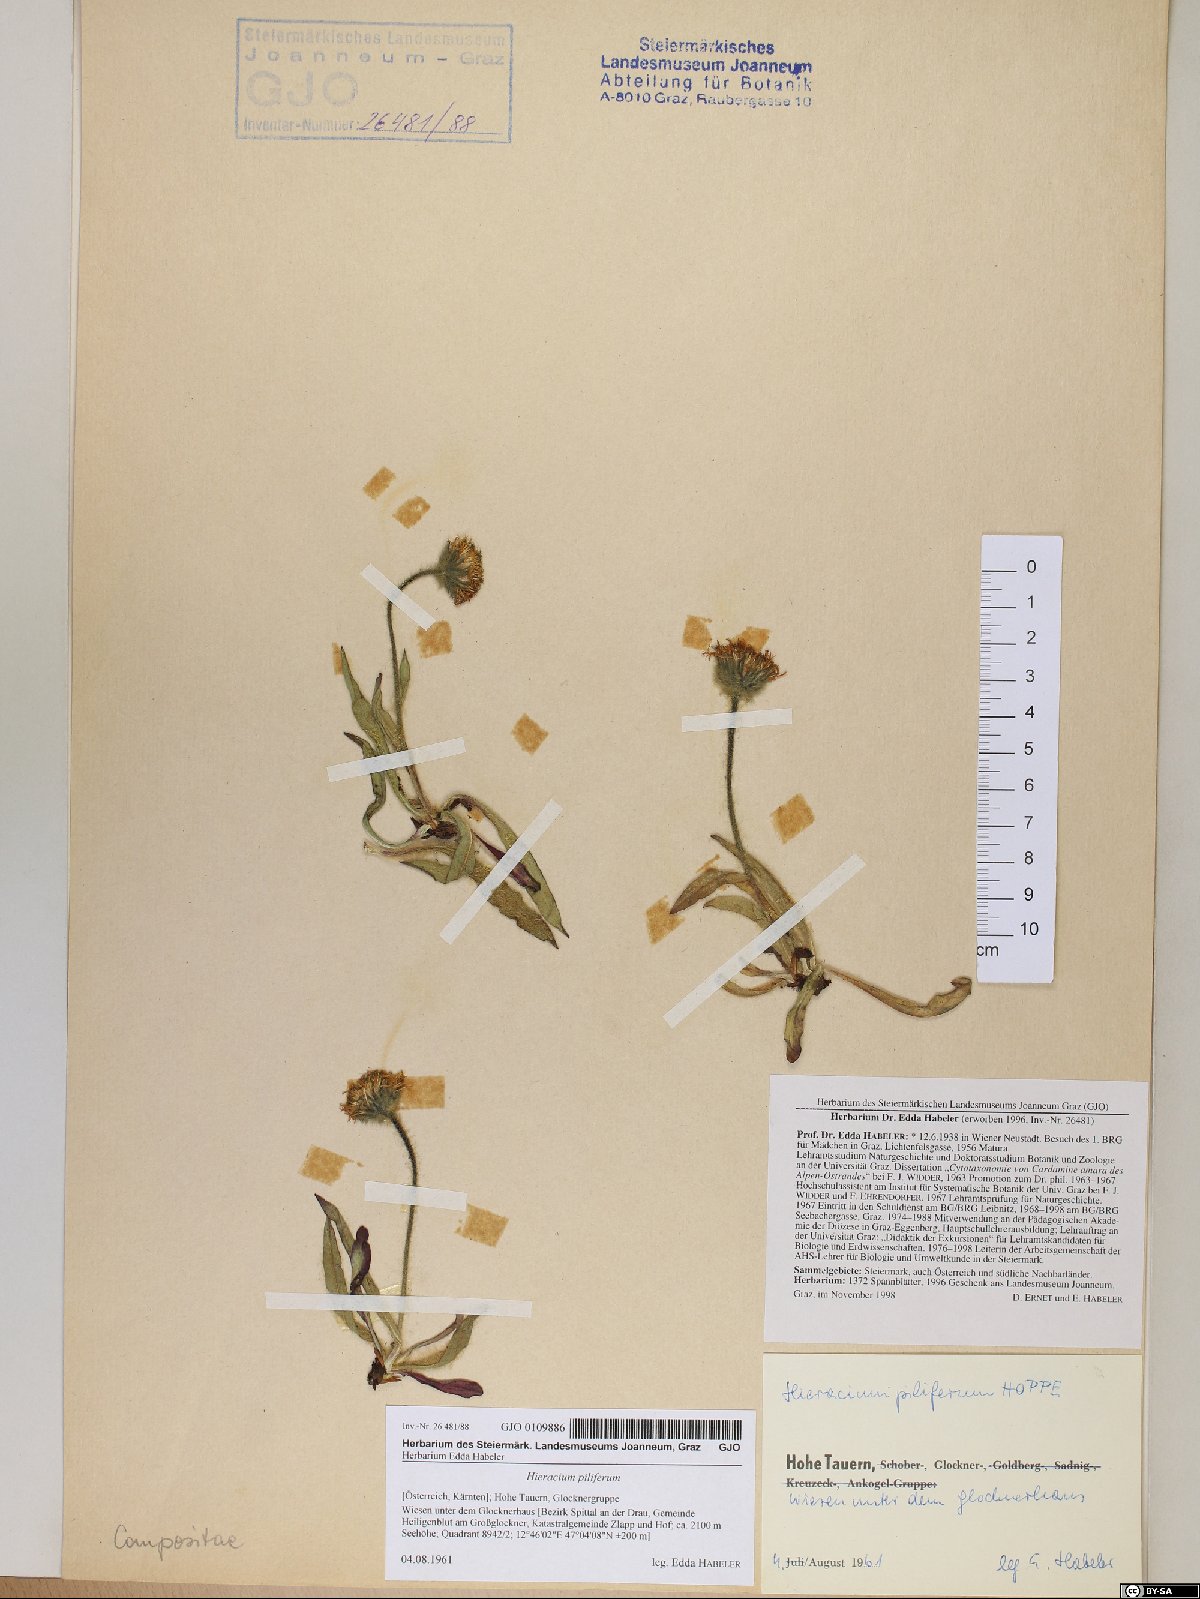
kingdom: Plantae
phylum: Tracheophyta
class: Magnoliopsida
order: Asterales
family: Asteraceae
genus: Hieracium
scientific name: Hieracium piliferum
